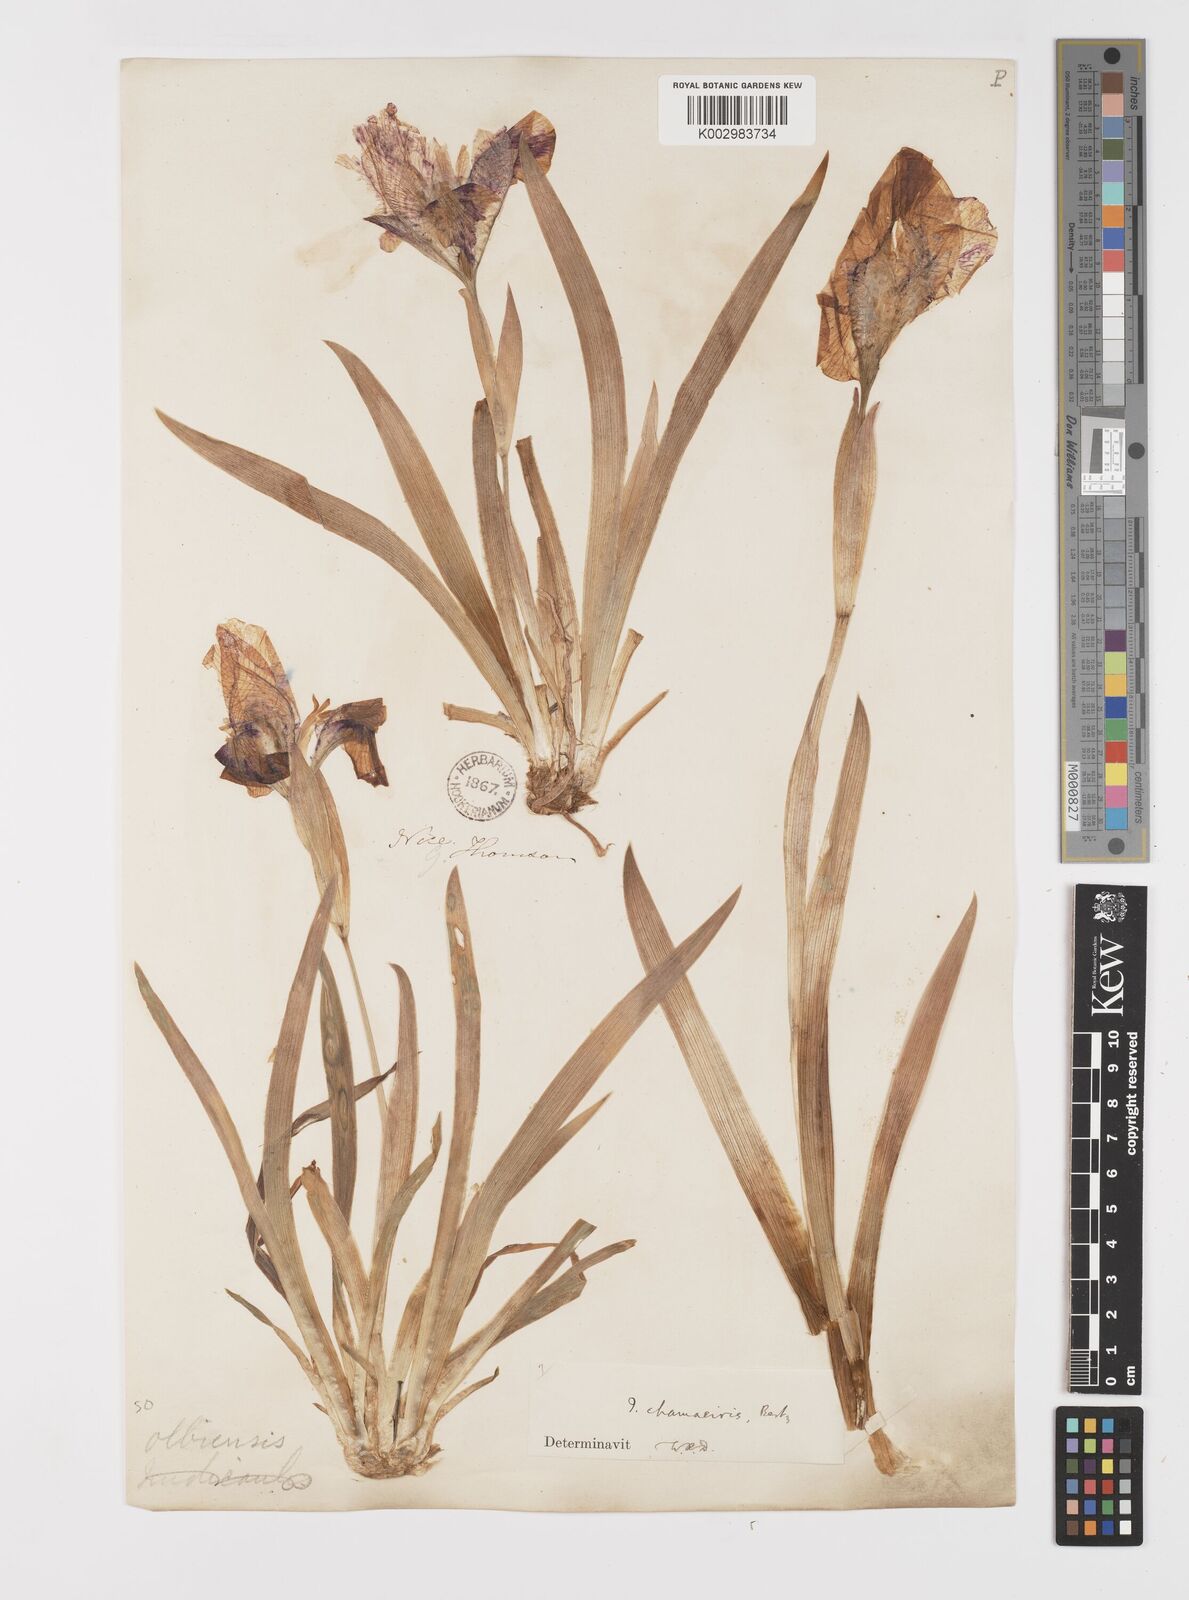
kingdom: Plantae
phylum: Tracheophyta
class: Liliopsida
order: Asparagales
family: Iridaceae
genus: Iris
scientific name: Iris lutescens
